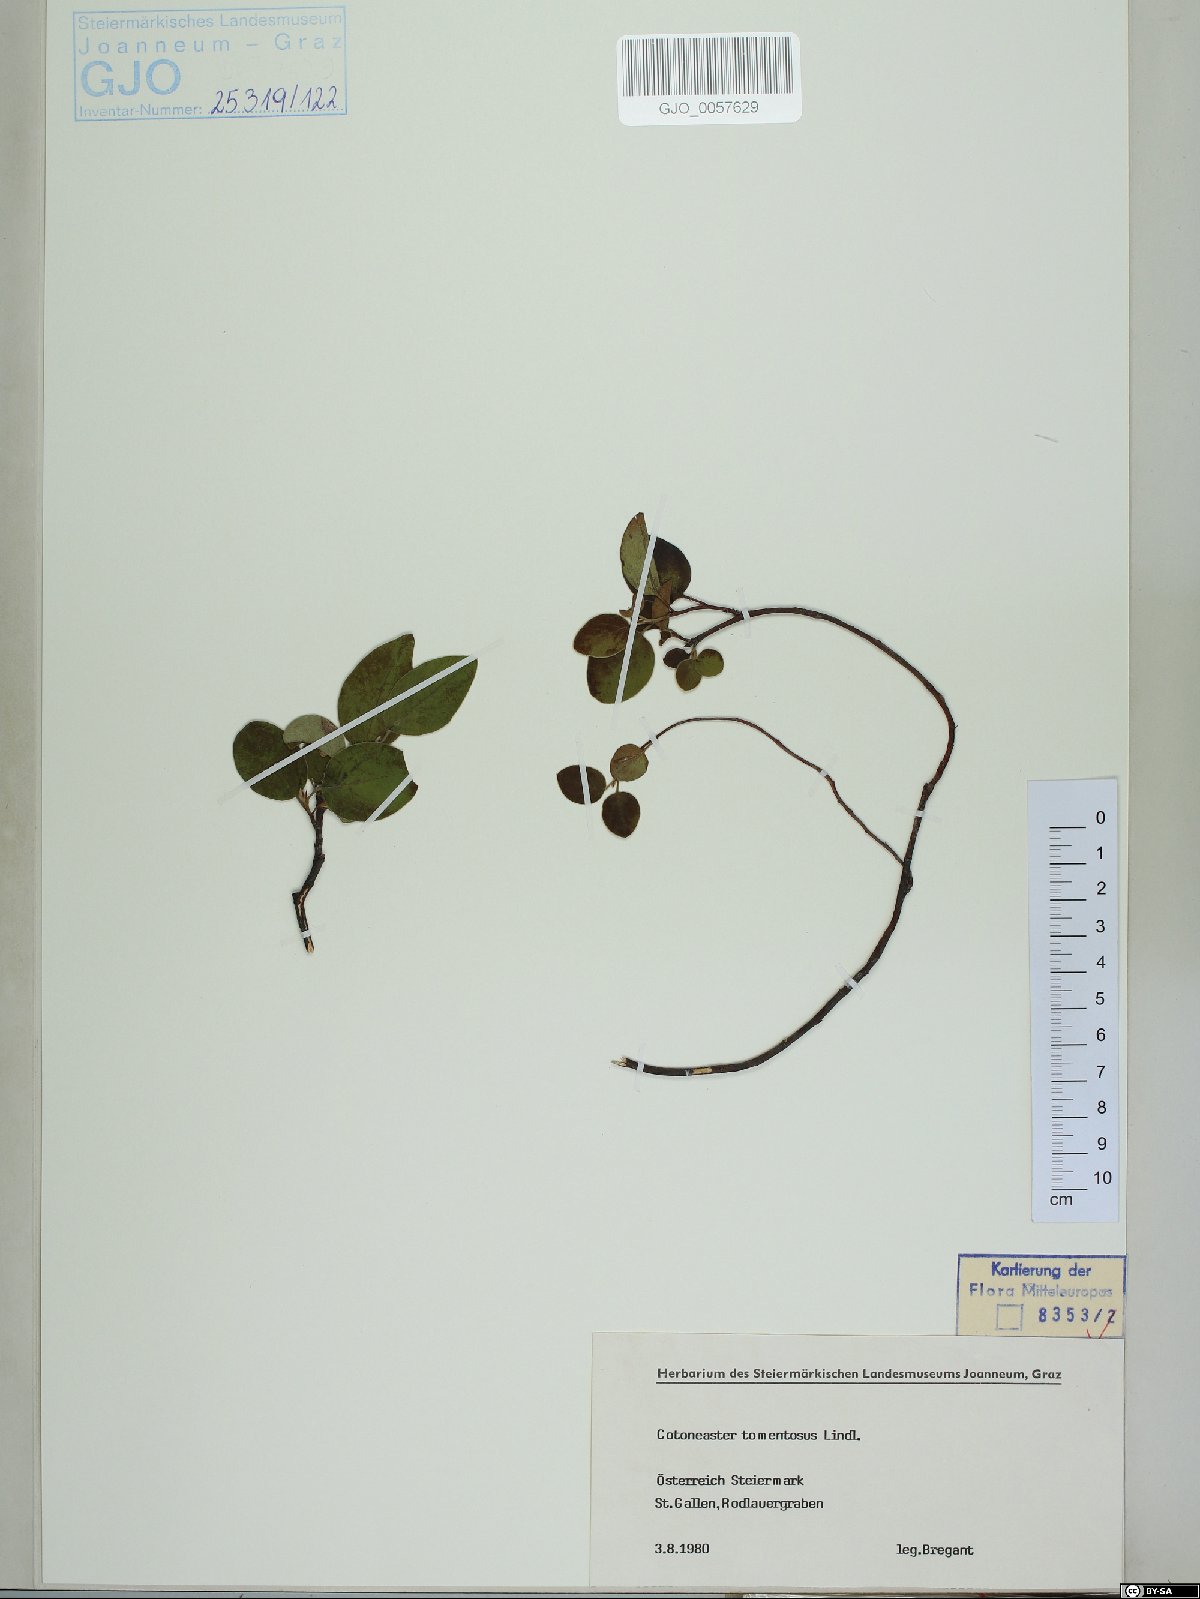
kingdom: Plantae
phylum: Tracheophyta
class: Magnoliopsida
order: Rosales
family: Rosaceae
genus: Cotoneaster
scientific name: Cotoneaster tomentosus
